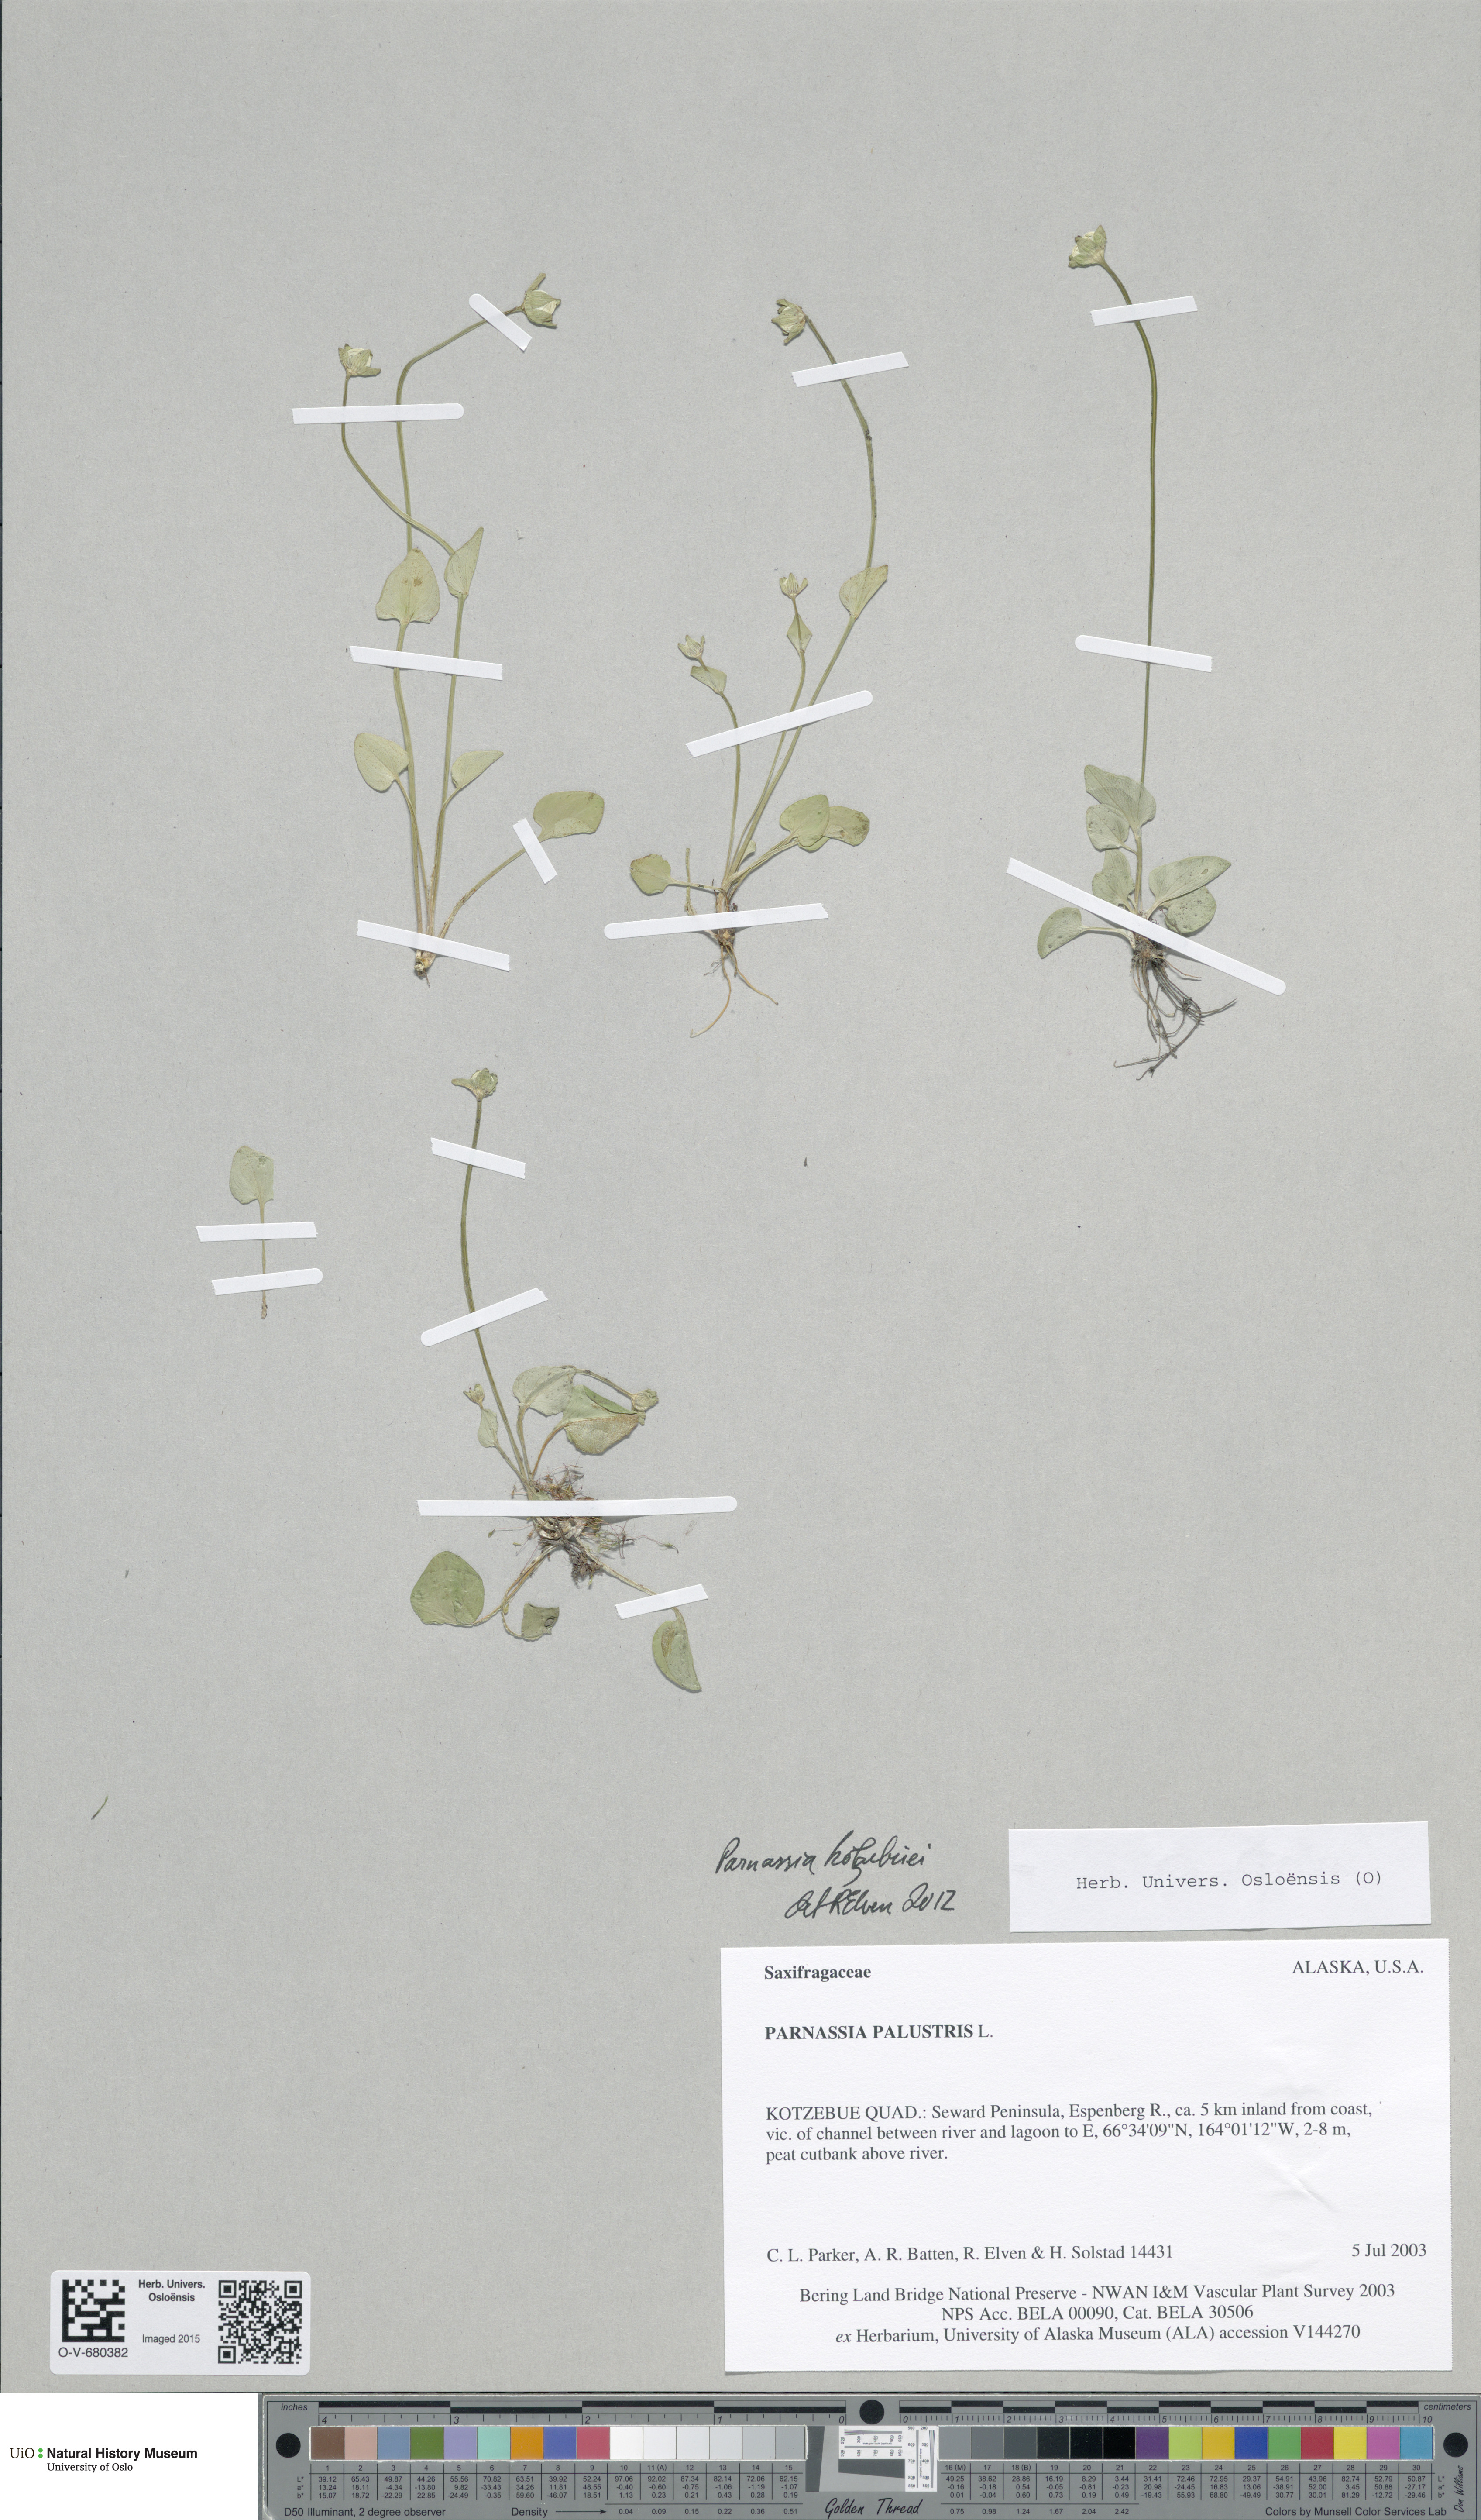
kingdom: Plantae
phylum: Tracheophyta
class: Magnoliopsida
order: Celastrales
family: Parnassiaceae
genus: Parnassia
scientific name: Parnassia kotzebuei
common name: Kotzebue's grass-of-parnassus
